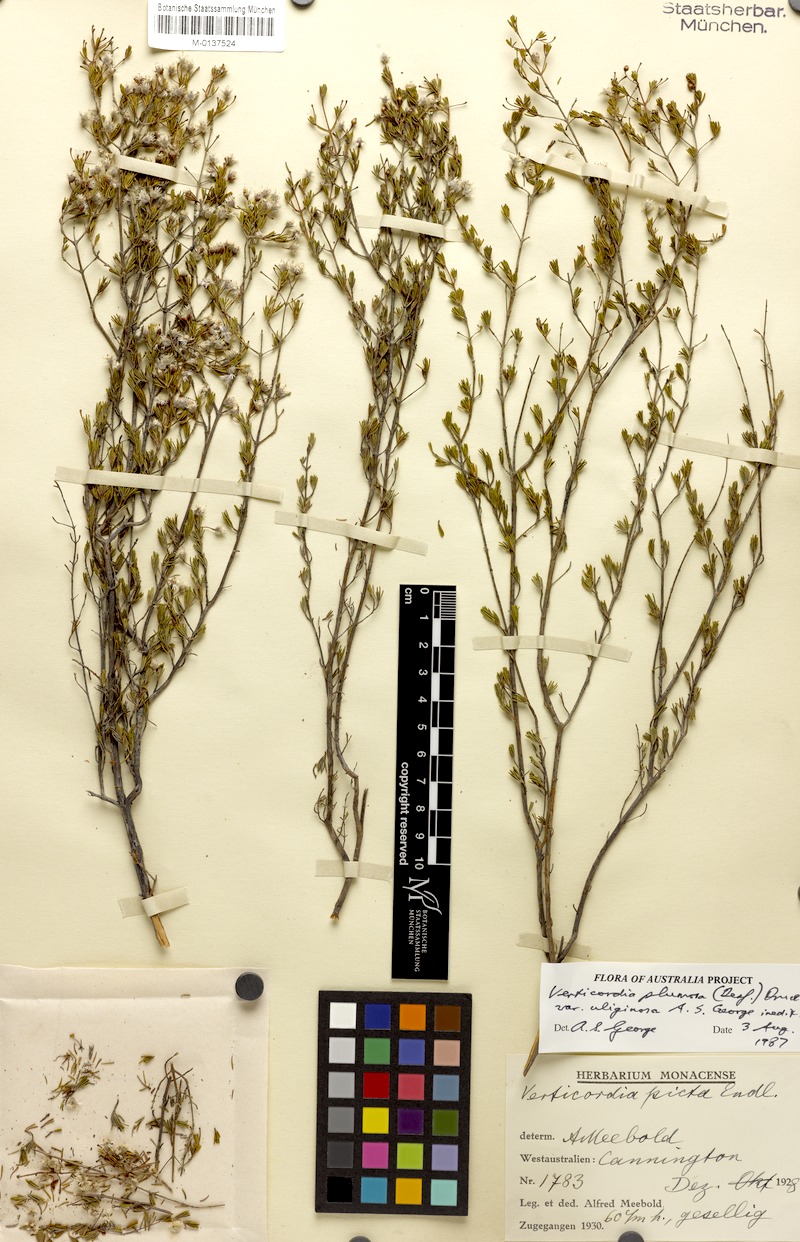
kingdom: Plantae
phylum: Tracheophyta
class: Magnoliopsida
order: Myrtales
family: Myrtaceae
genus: Verticordia
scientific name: Verticordia plumosa
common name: Plume feather-flower
